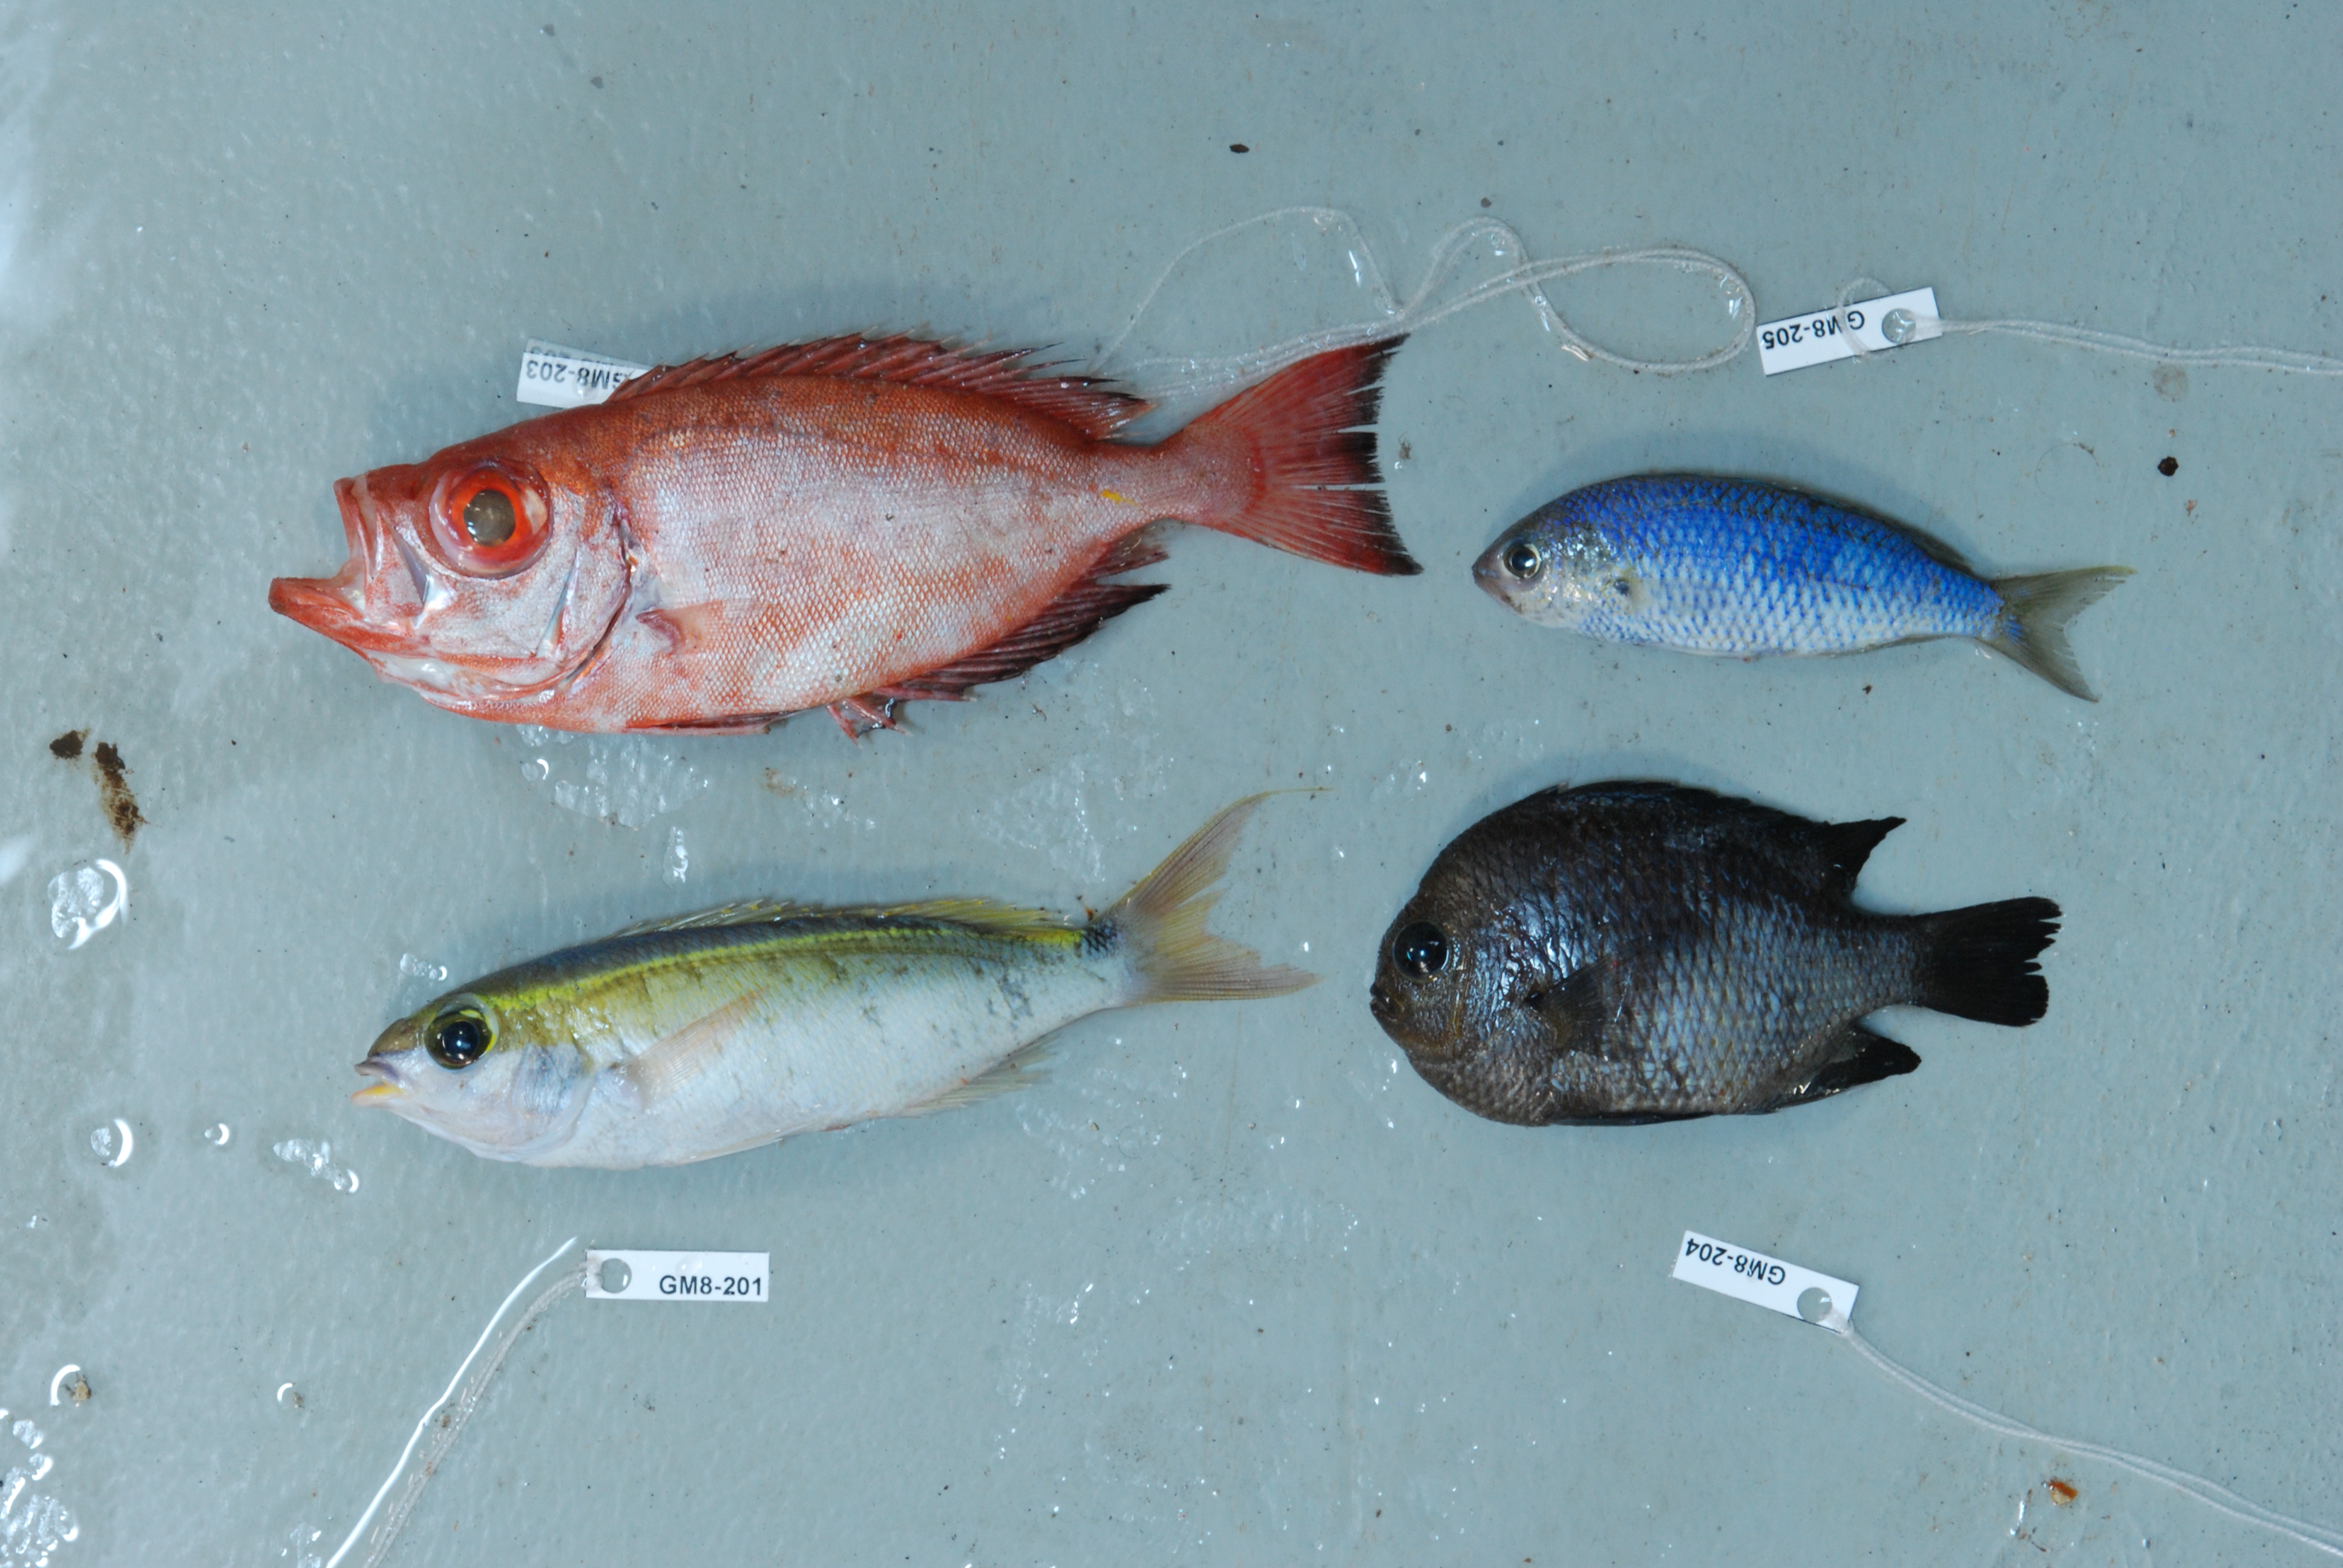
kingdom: Animalia
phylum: Chordata
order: Perciformes
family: Nemipteridae
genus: Scolopsis
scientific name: Scolopsis frenata
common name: Bridled monocle bream
